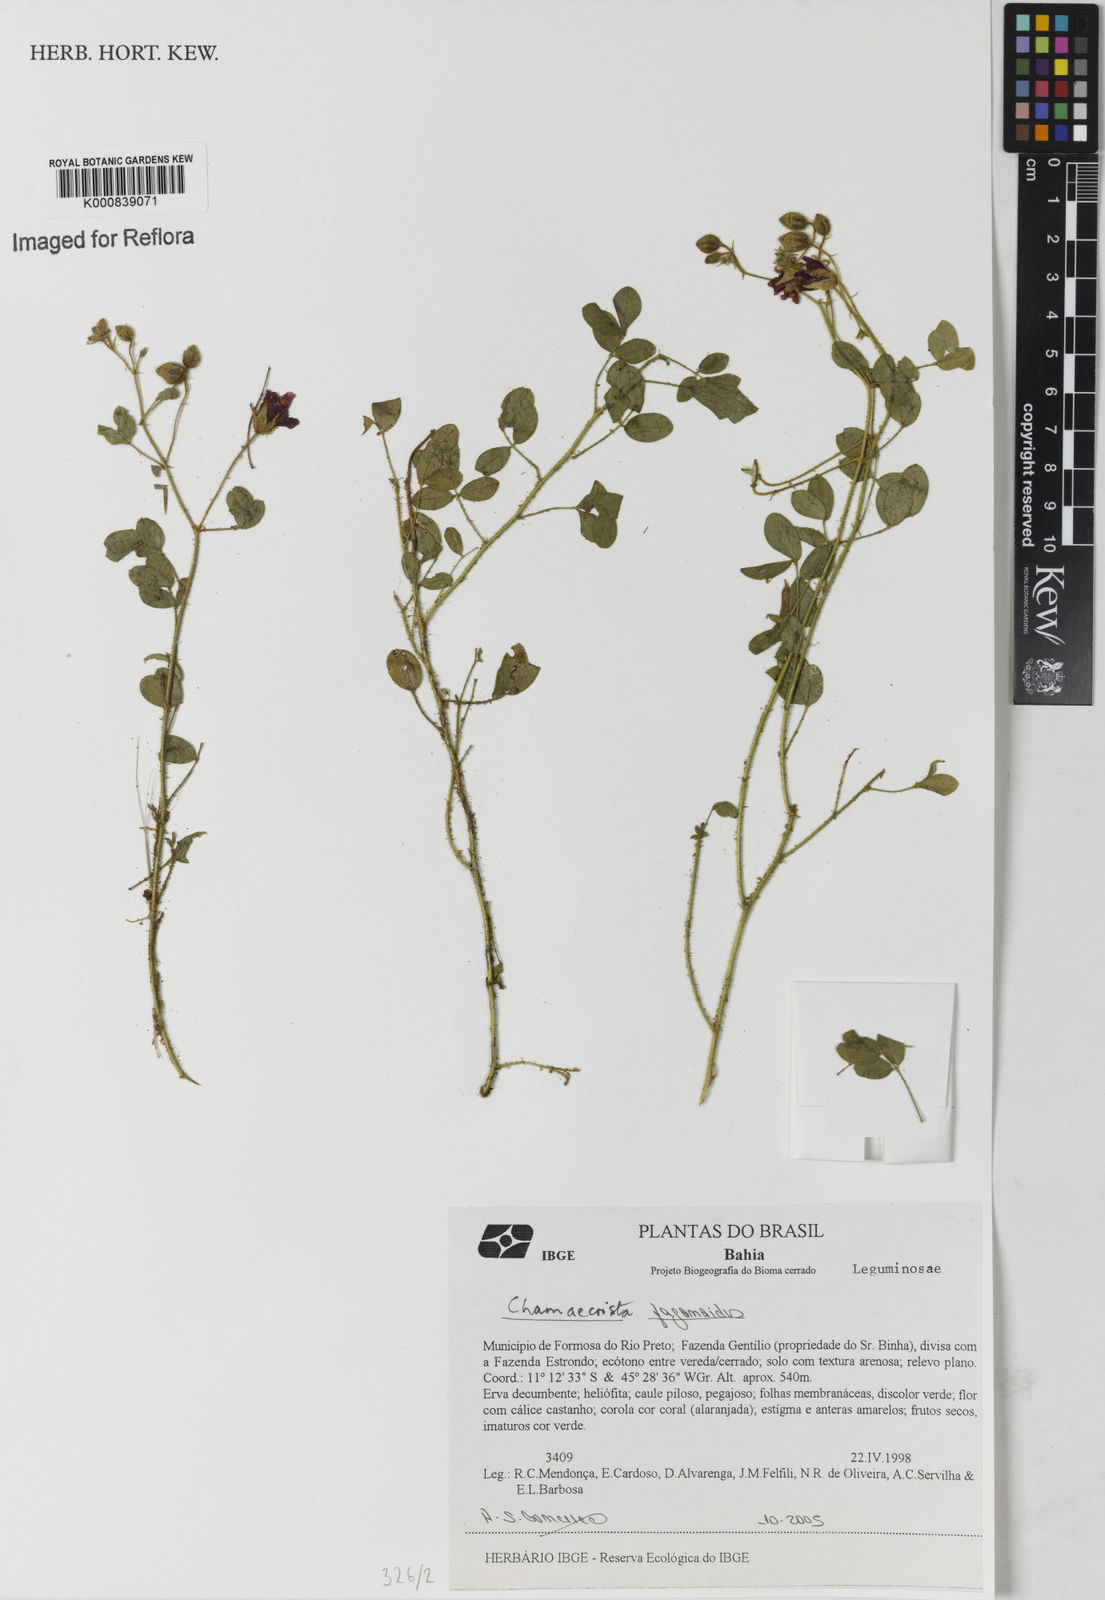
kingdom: Plantae
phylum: Tracheophyta
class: Magnoliopsida
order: Fabales
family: Fabaceae
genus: Chamaecrista
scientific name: Chamaecrista fagonioides
